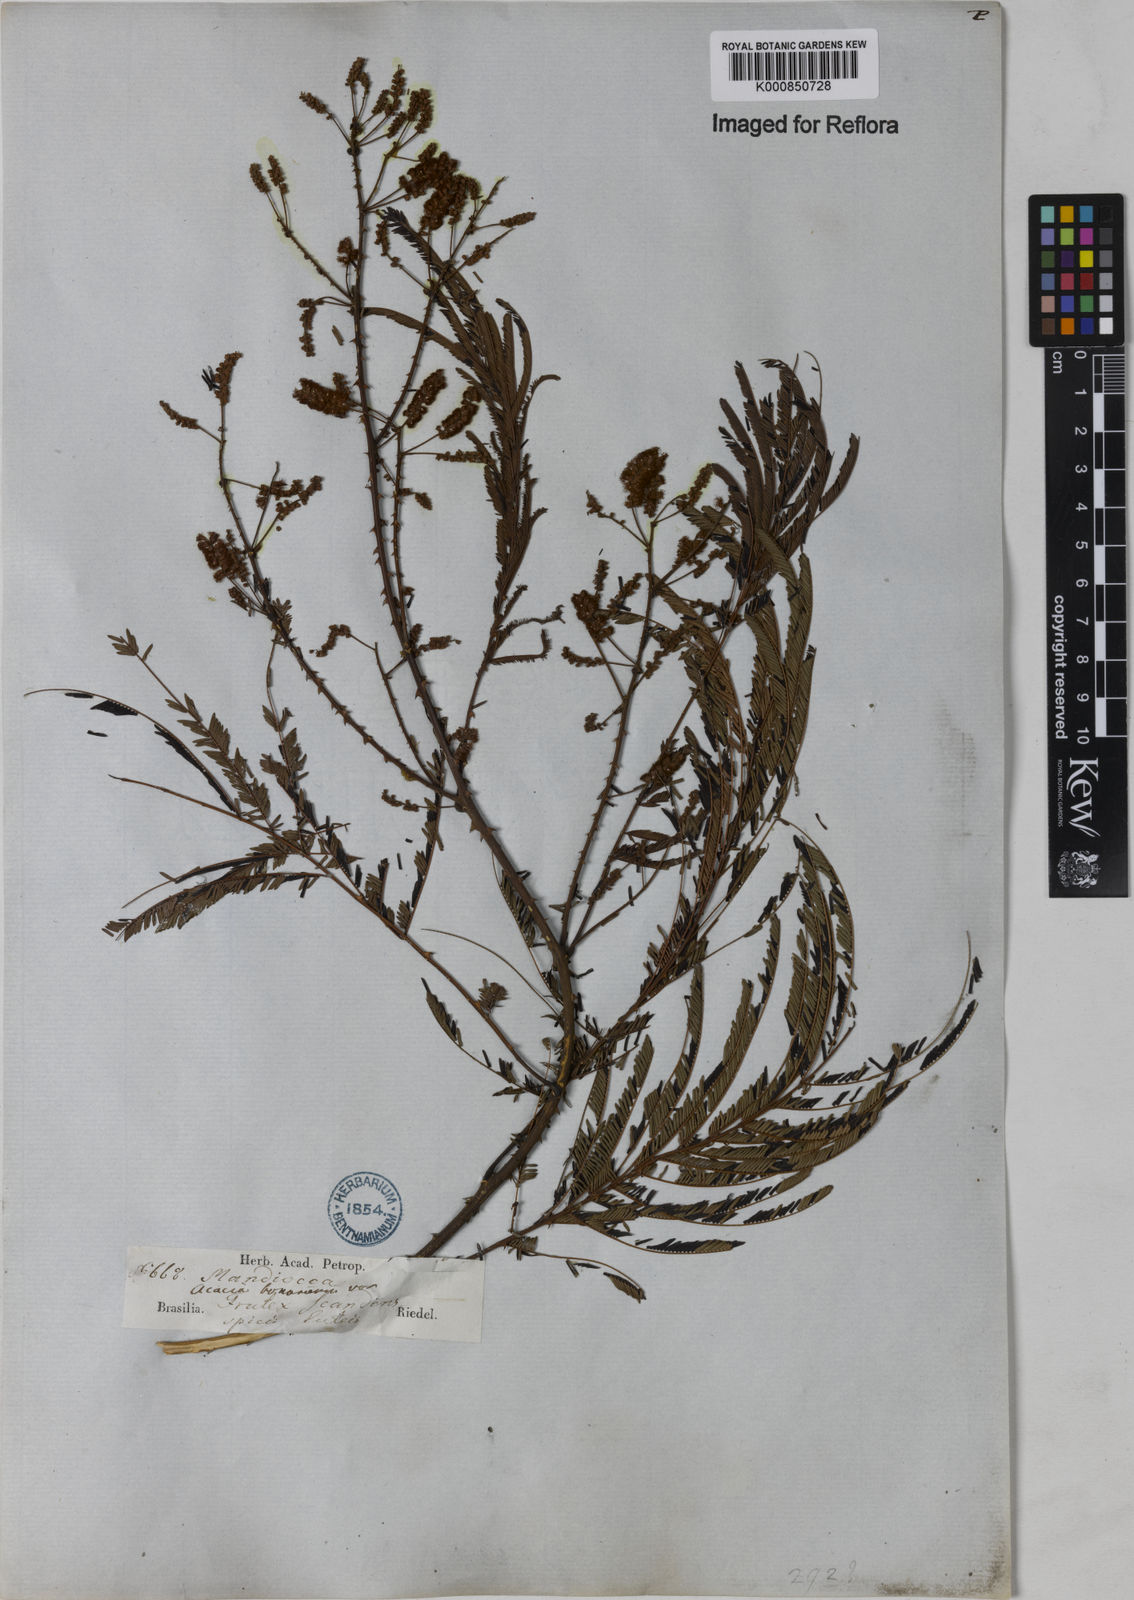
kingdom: Plantae
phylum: Tracheophyta
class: Magnoliopsida
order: Fabales
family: Fabaceae
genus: Senegalia
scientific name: Senegalia lowei
